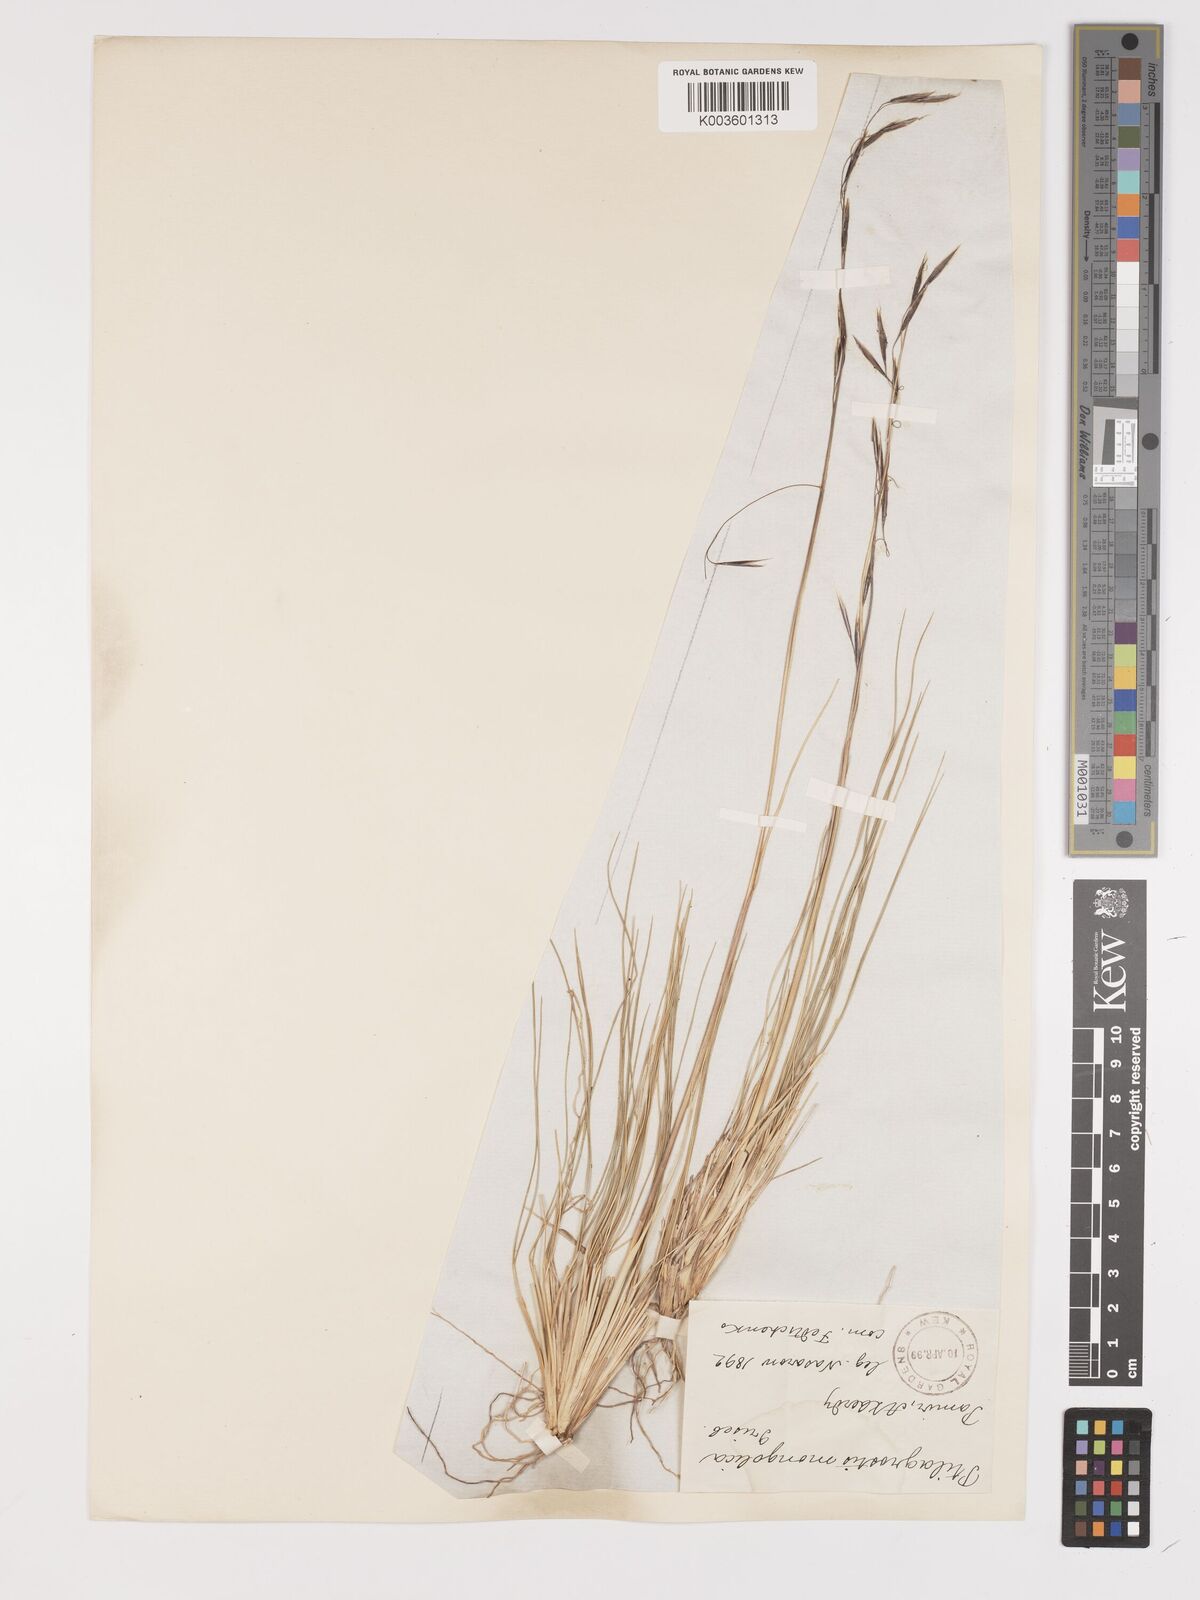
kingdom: Plantae
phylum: Tracheophyta
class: Liliopsida
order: Poales
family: Poaceae
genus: Stipa
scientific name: Stipa
